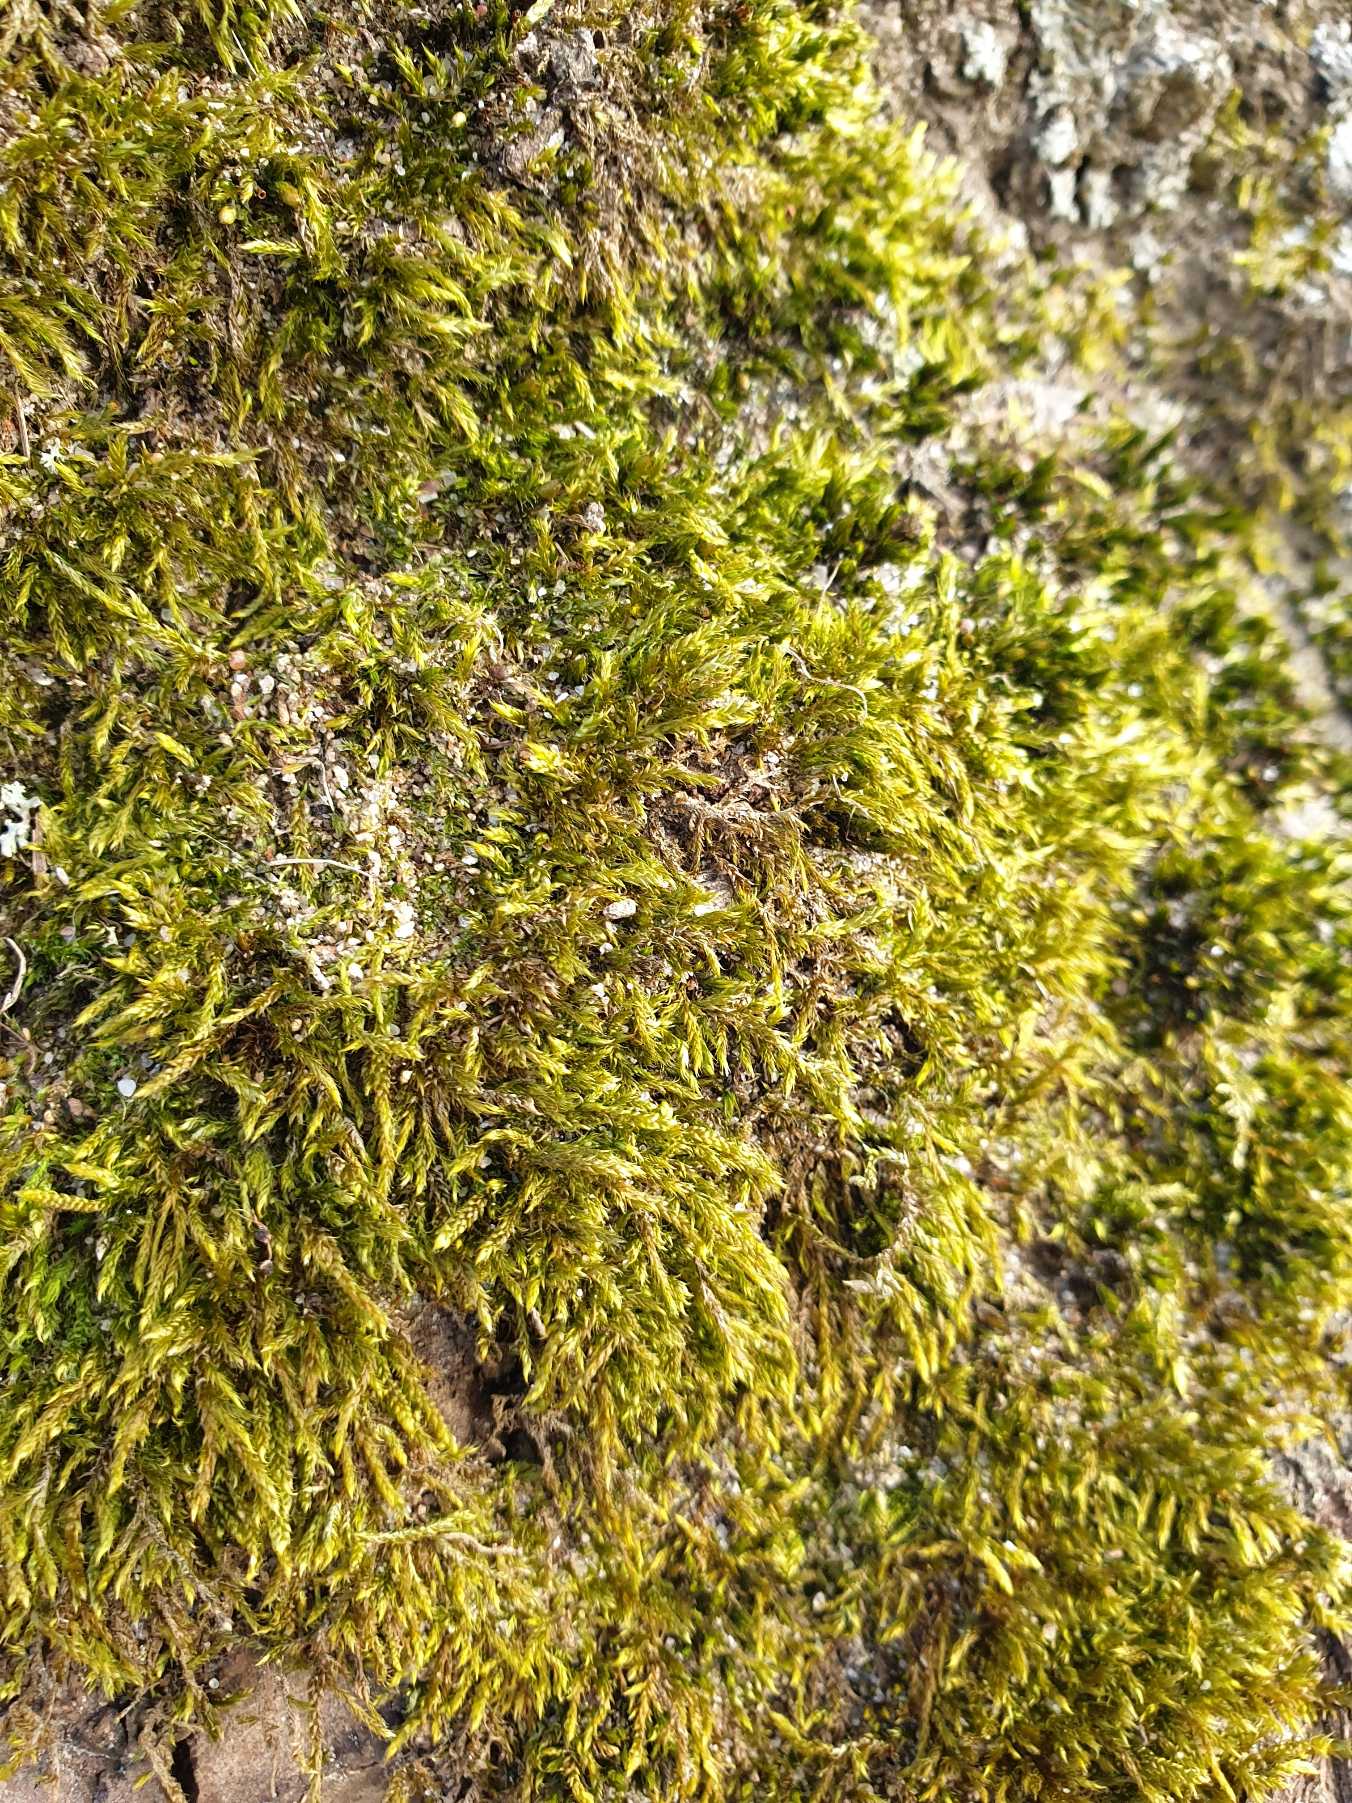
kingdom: Plantae
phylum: Bryophyta
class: Bryopsida
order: Hypnales
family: Hypnaceae
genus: Hypnum
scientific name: Hypnum cupressiforme
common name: Almindelig cypresmos
